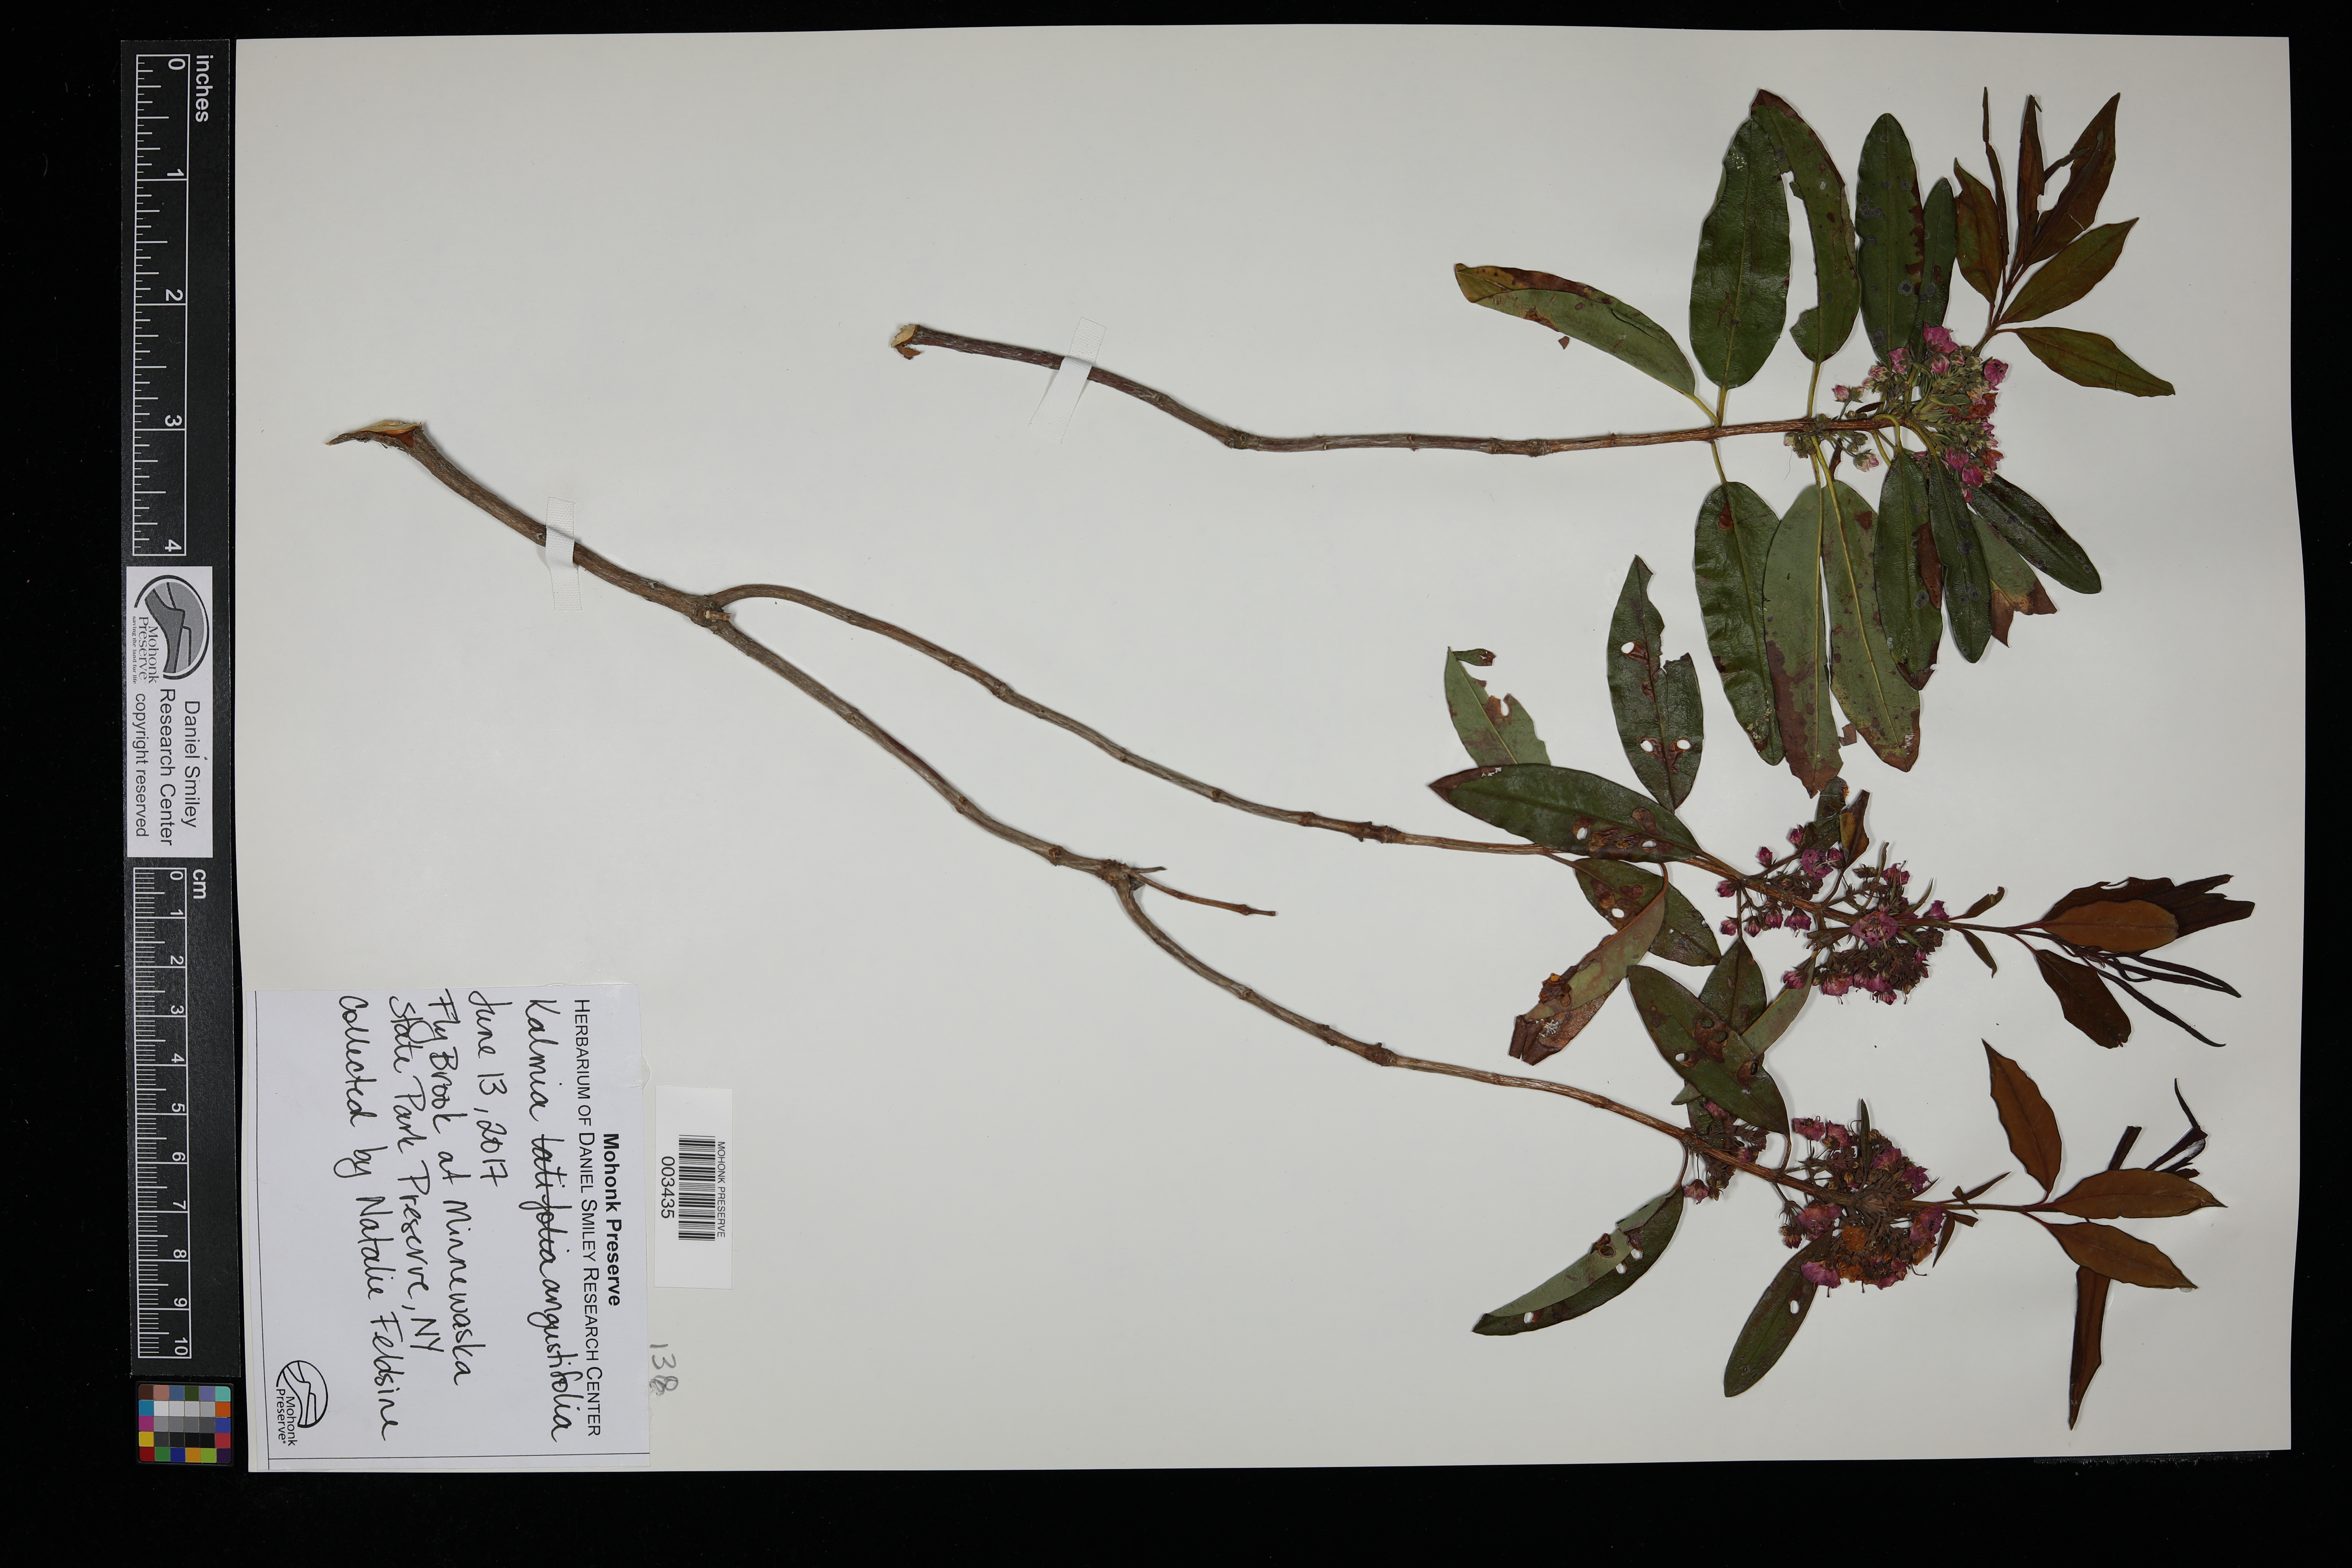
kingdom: Plantae
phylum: Tracheophyta
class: Magnoliopsida
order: Ericales
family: Ericaceae
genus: Kalmia
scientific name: Kalmia angustifolia
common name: Sheep-laurel
